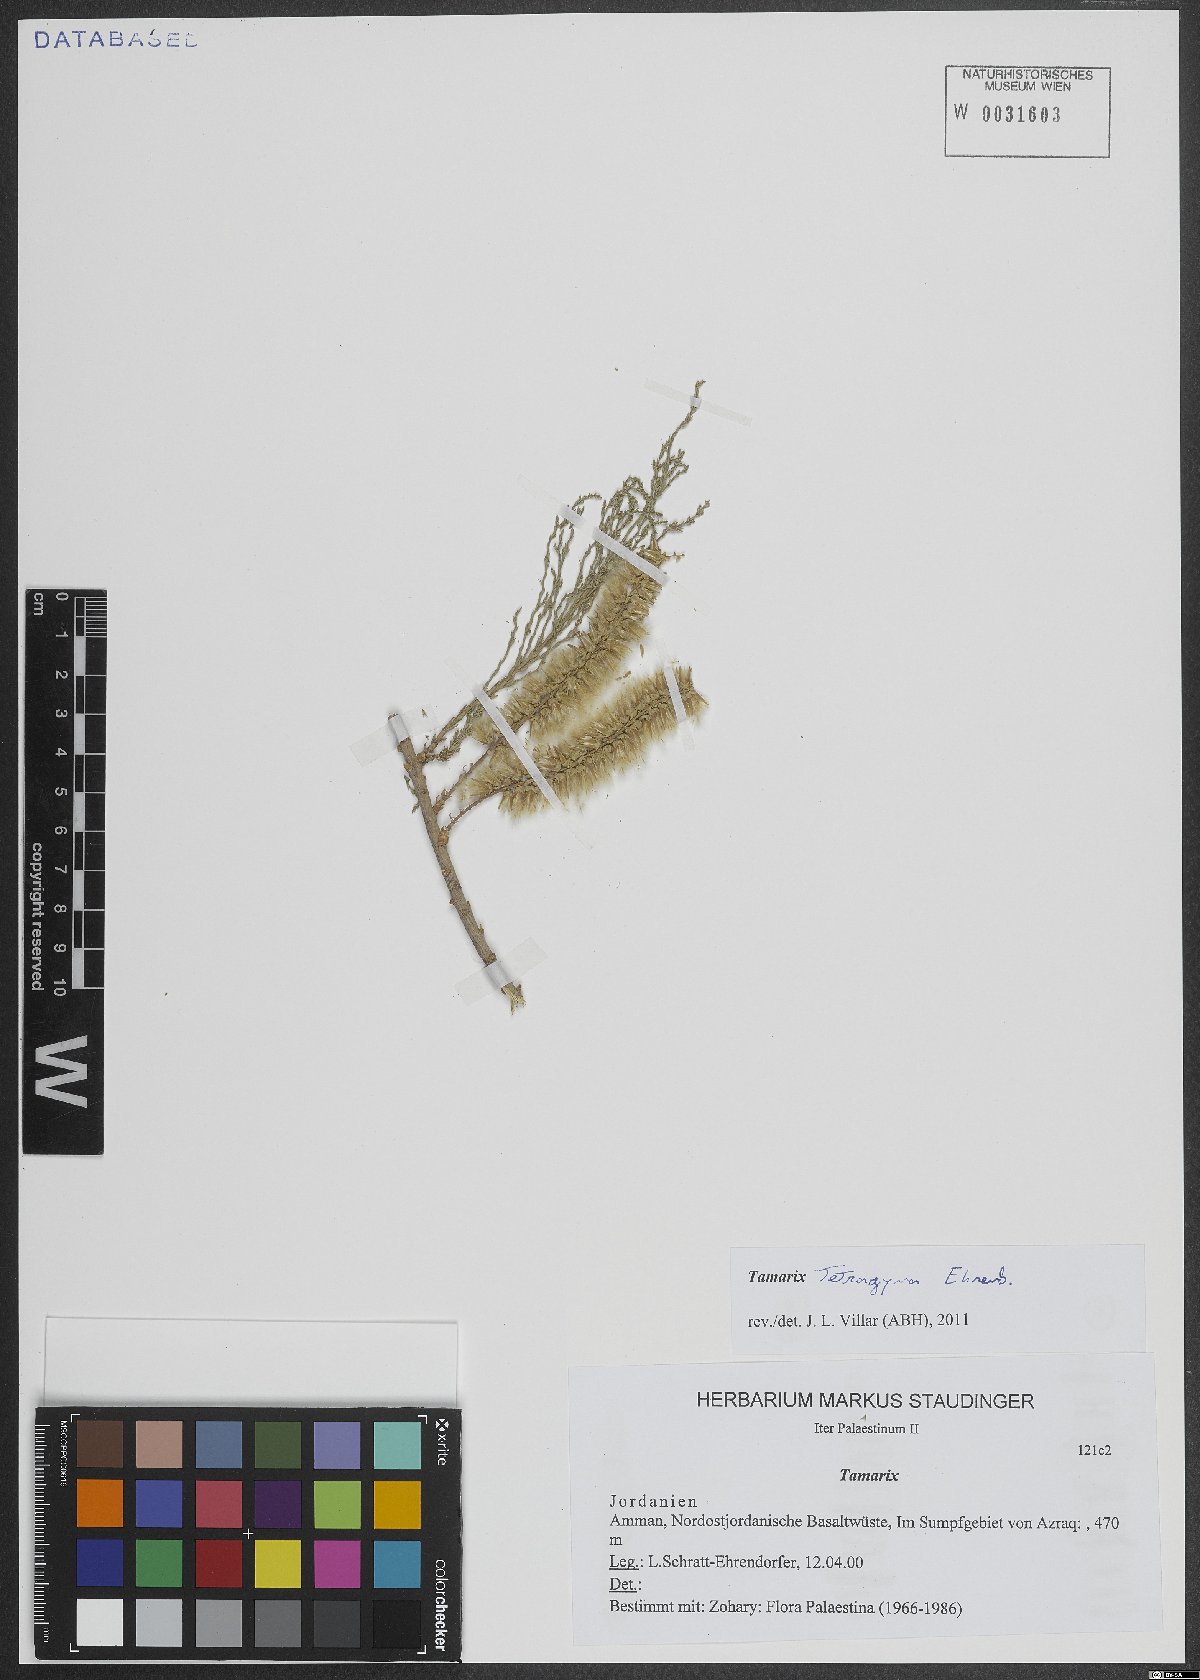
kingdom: Plantae
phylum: Tracheophyta
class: Magnoliopsida
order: Caryophyllales
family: Tamaricaceae
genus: Tamarix
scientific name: Tamarix tetragyna
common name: Four-stamen tamarisk
